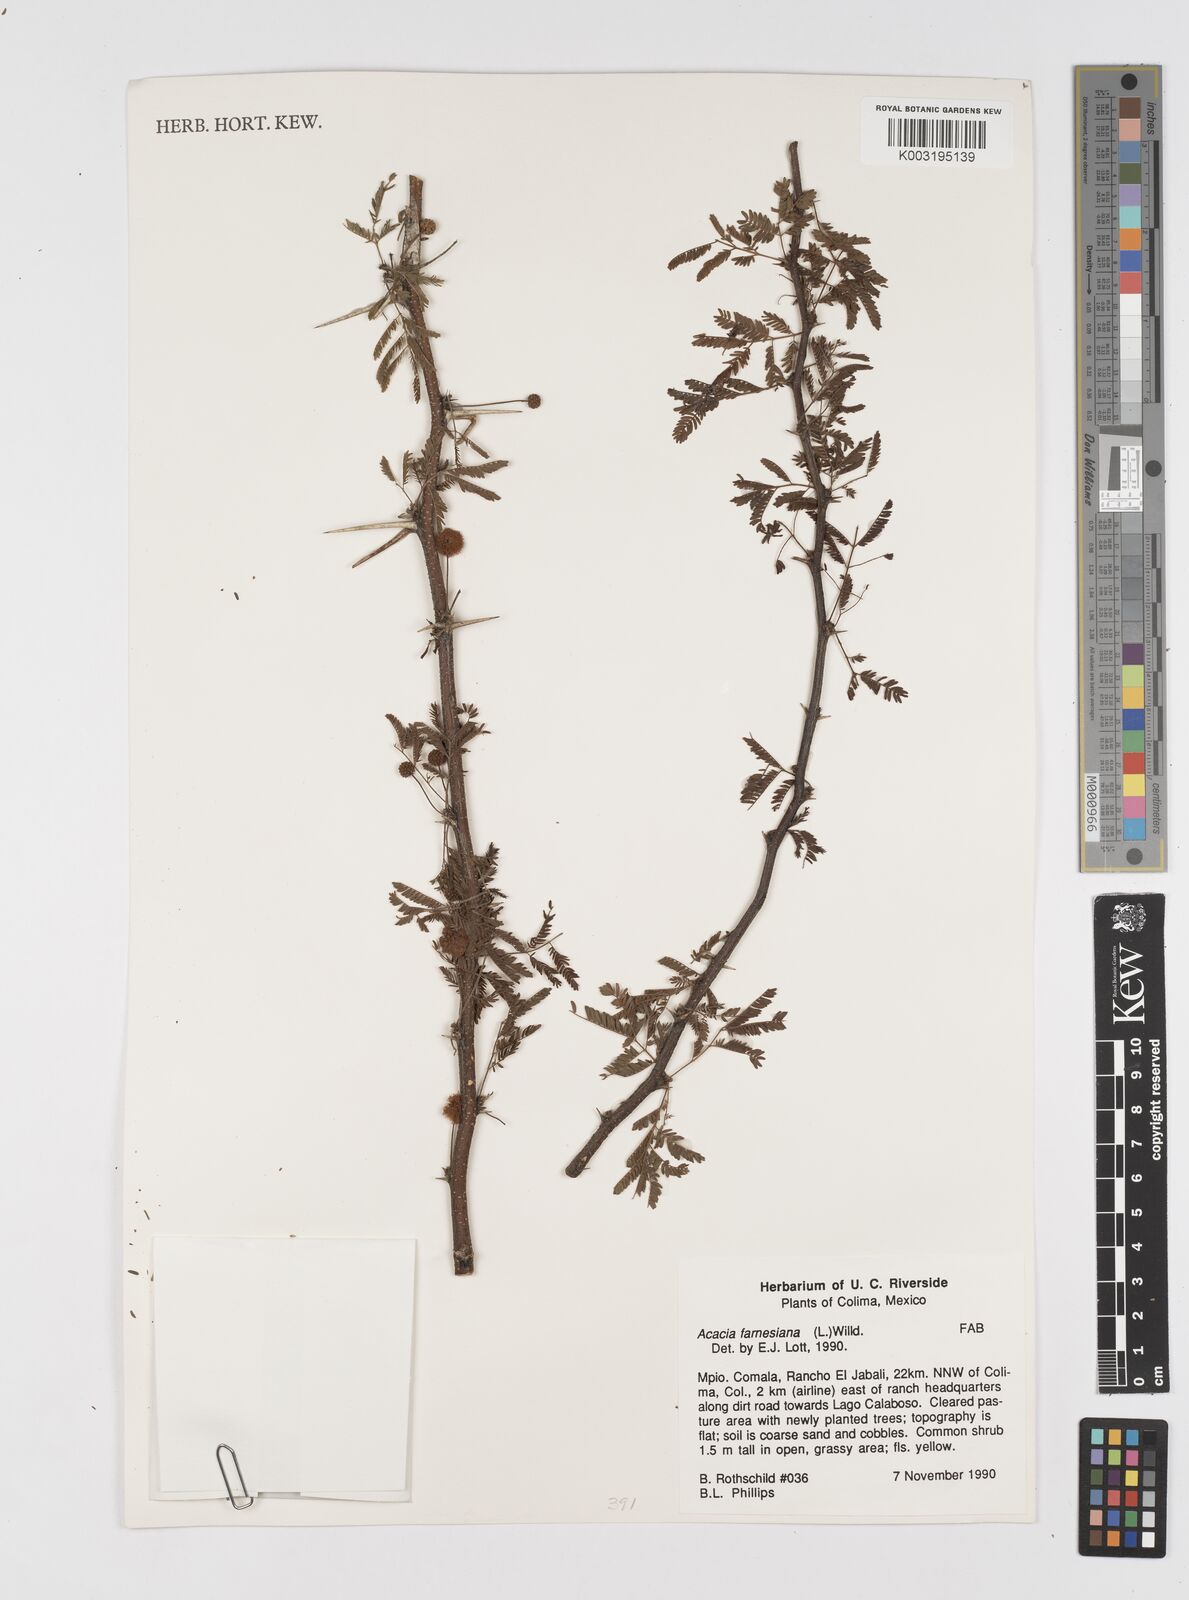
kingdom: Plantae
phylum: Tracheophyta
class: Magnoliopsida
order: Fabales
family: Fabaceae
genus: Vachellia
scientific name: Vachellia farnesiana
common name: Sweet acacia
